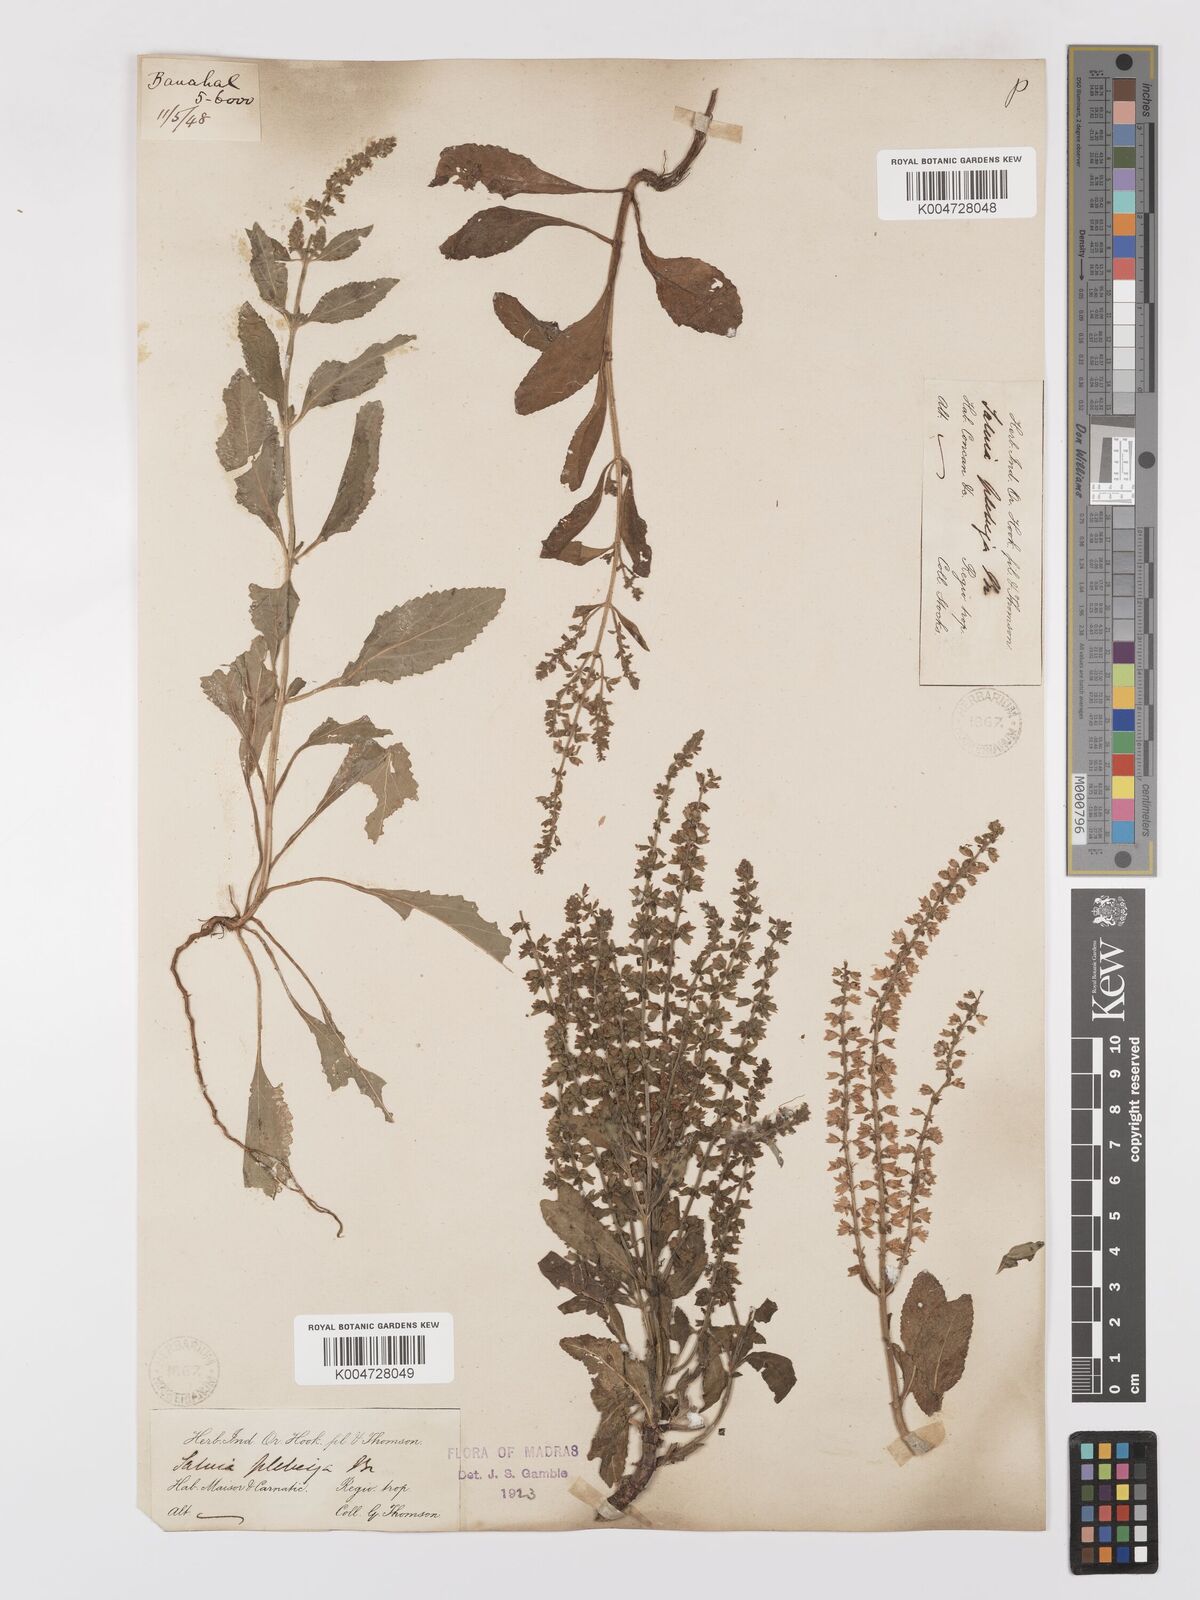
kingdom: Plantae
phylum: Tracheophyta
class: Magnoliopsida
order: Lamiales
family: Lamiaceae
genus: Salvia
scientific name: Salvia plebeia
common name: Australian sage
